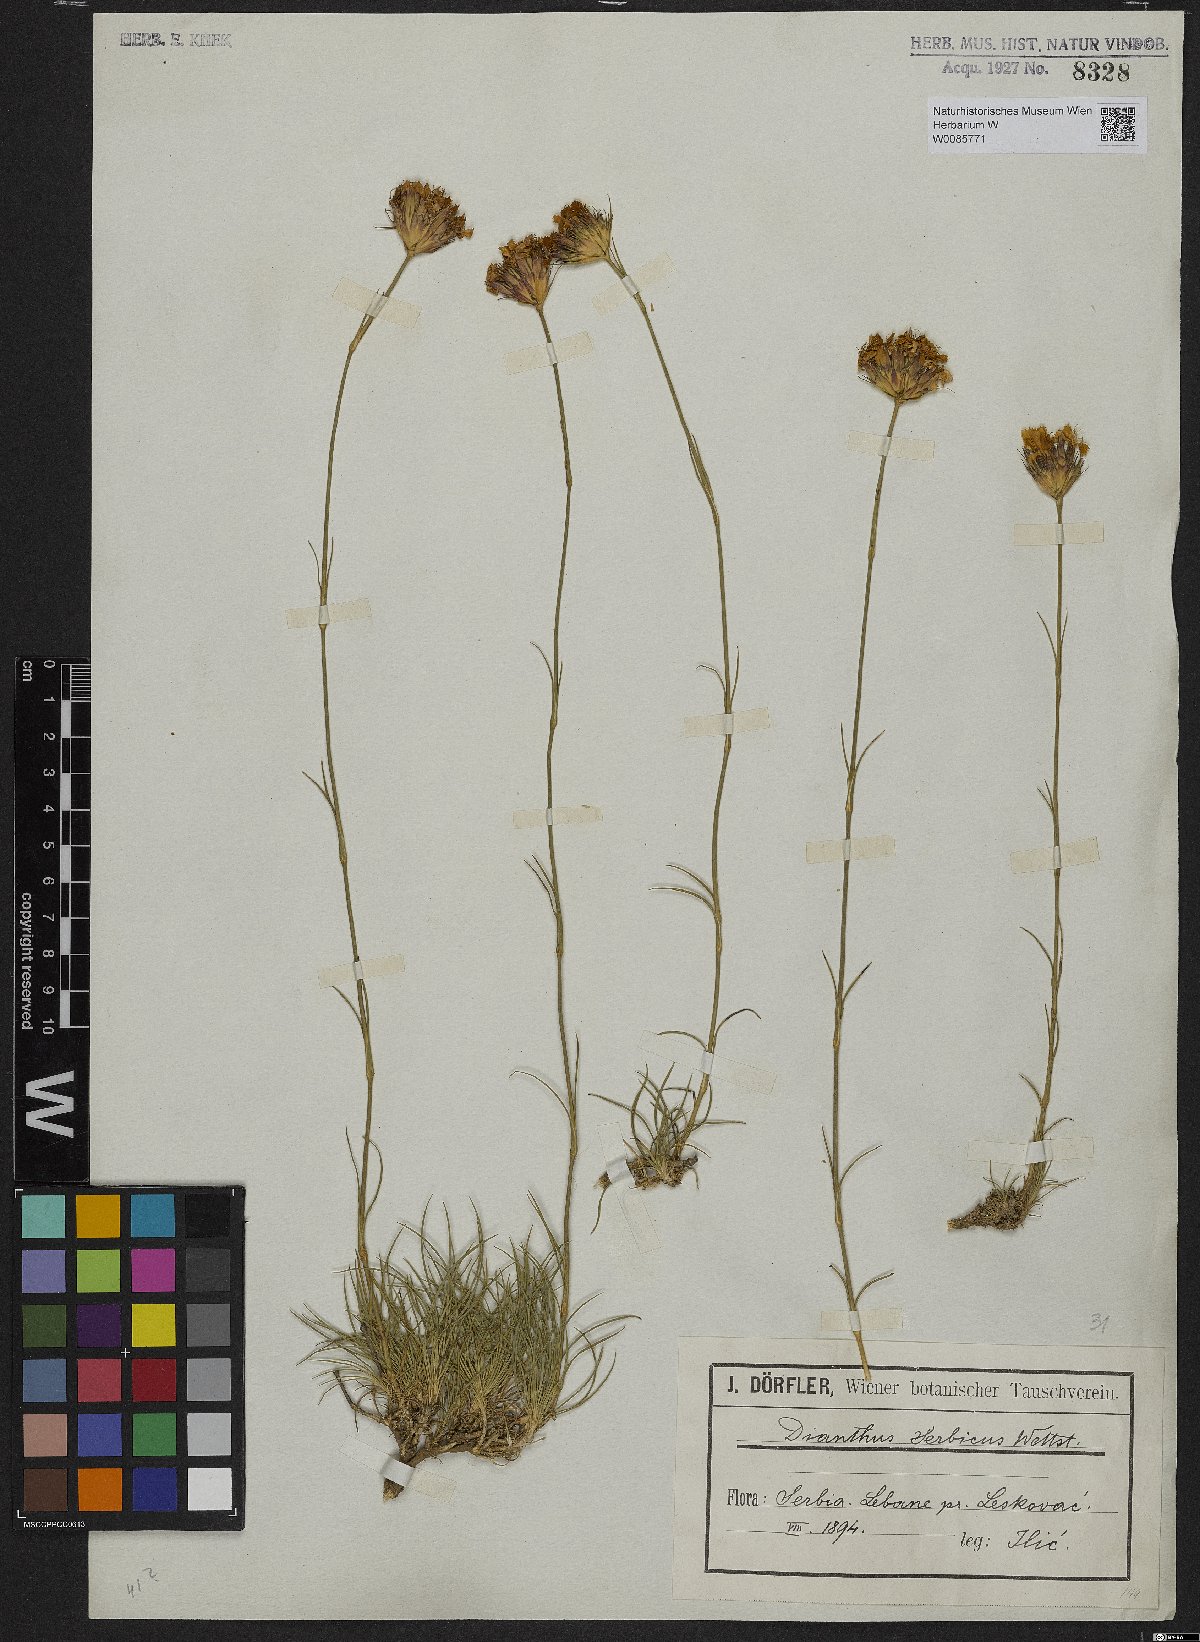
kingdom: Plantae
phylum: Tracheophyta
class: Magnoliopsida
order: Caryophyllales
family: Caryophyllaceae
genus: Dianthus
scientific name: Dianthus pinifolius
